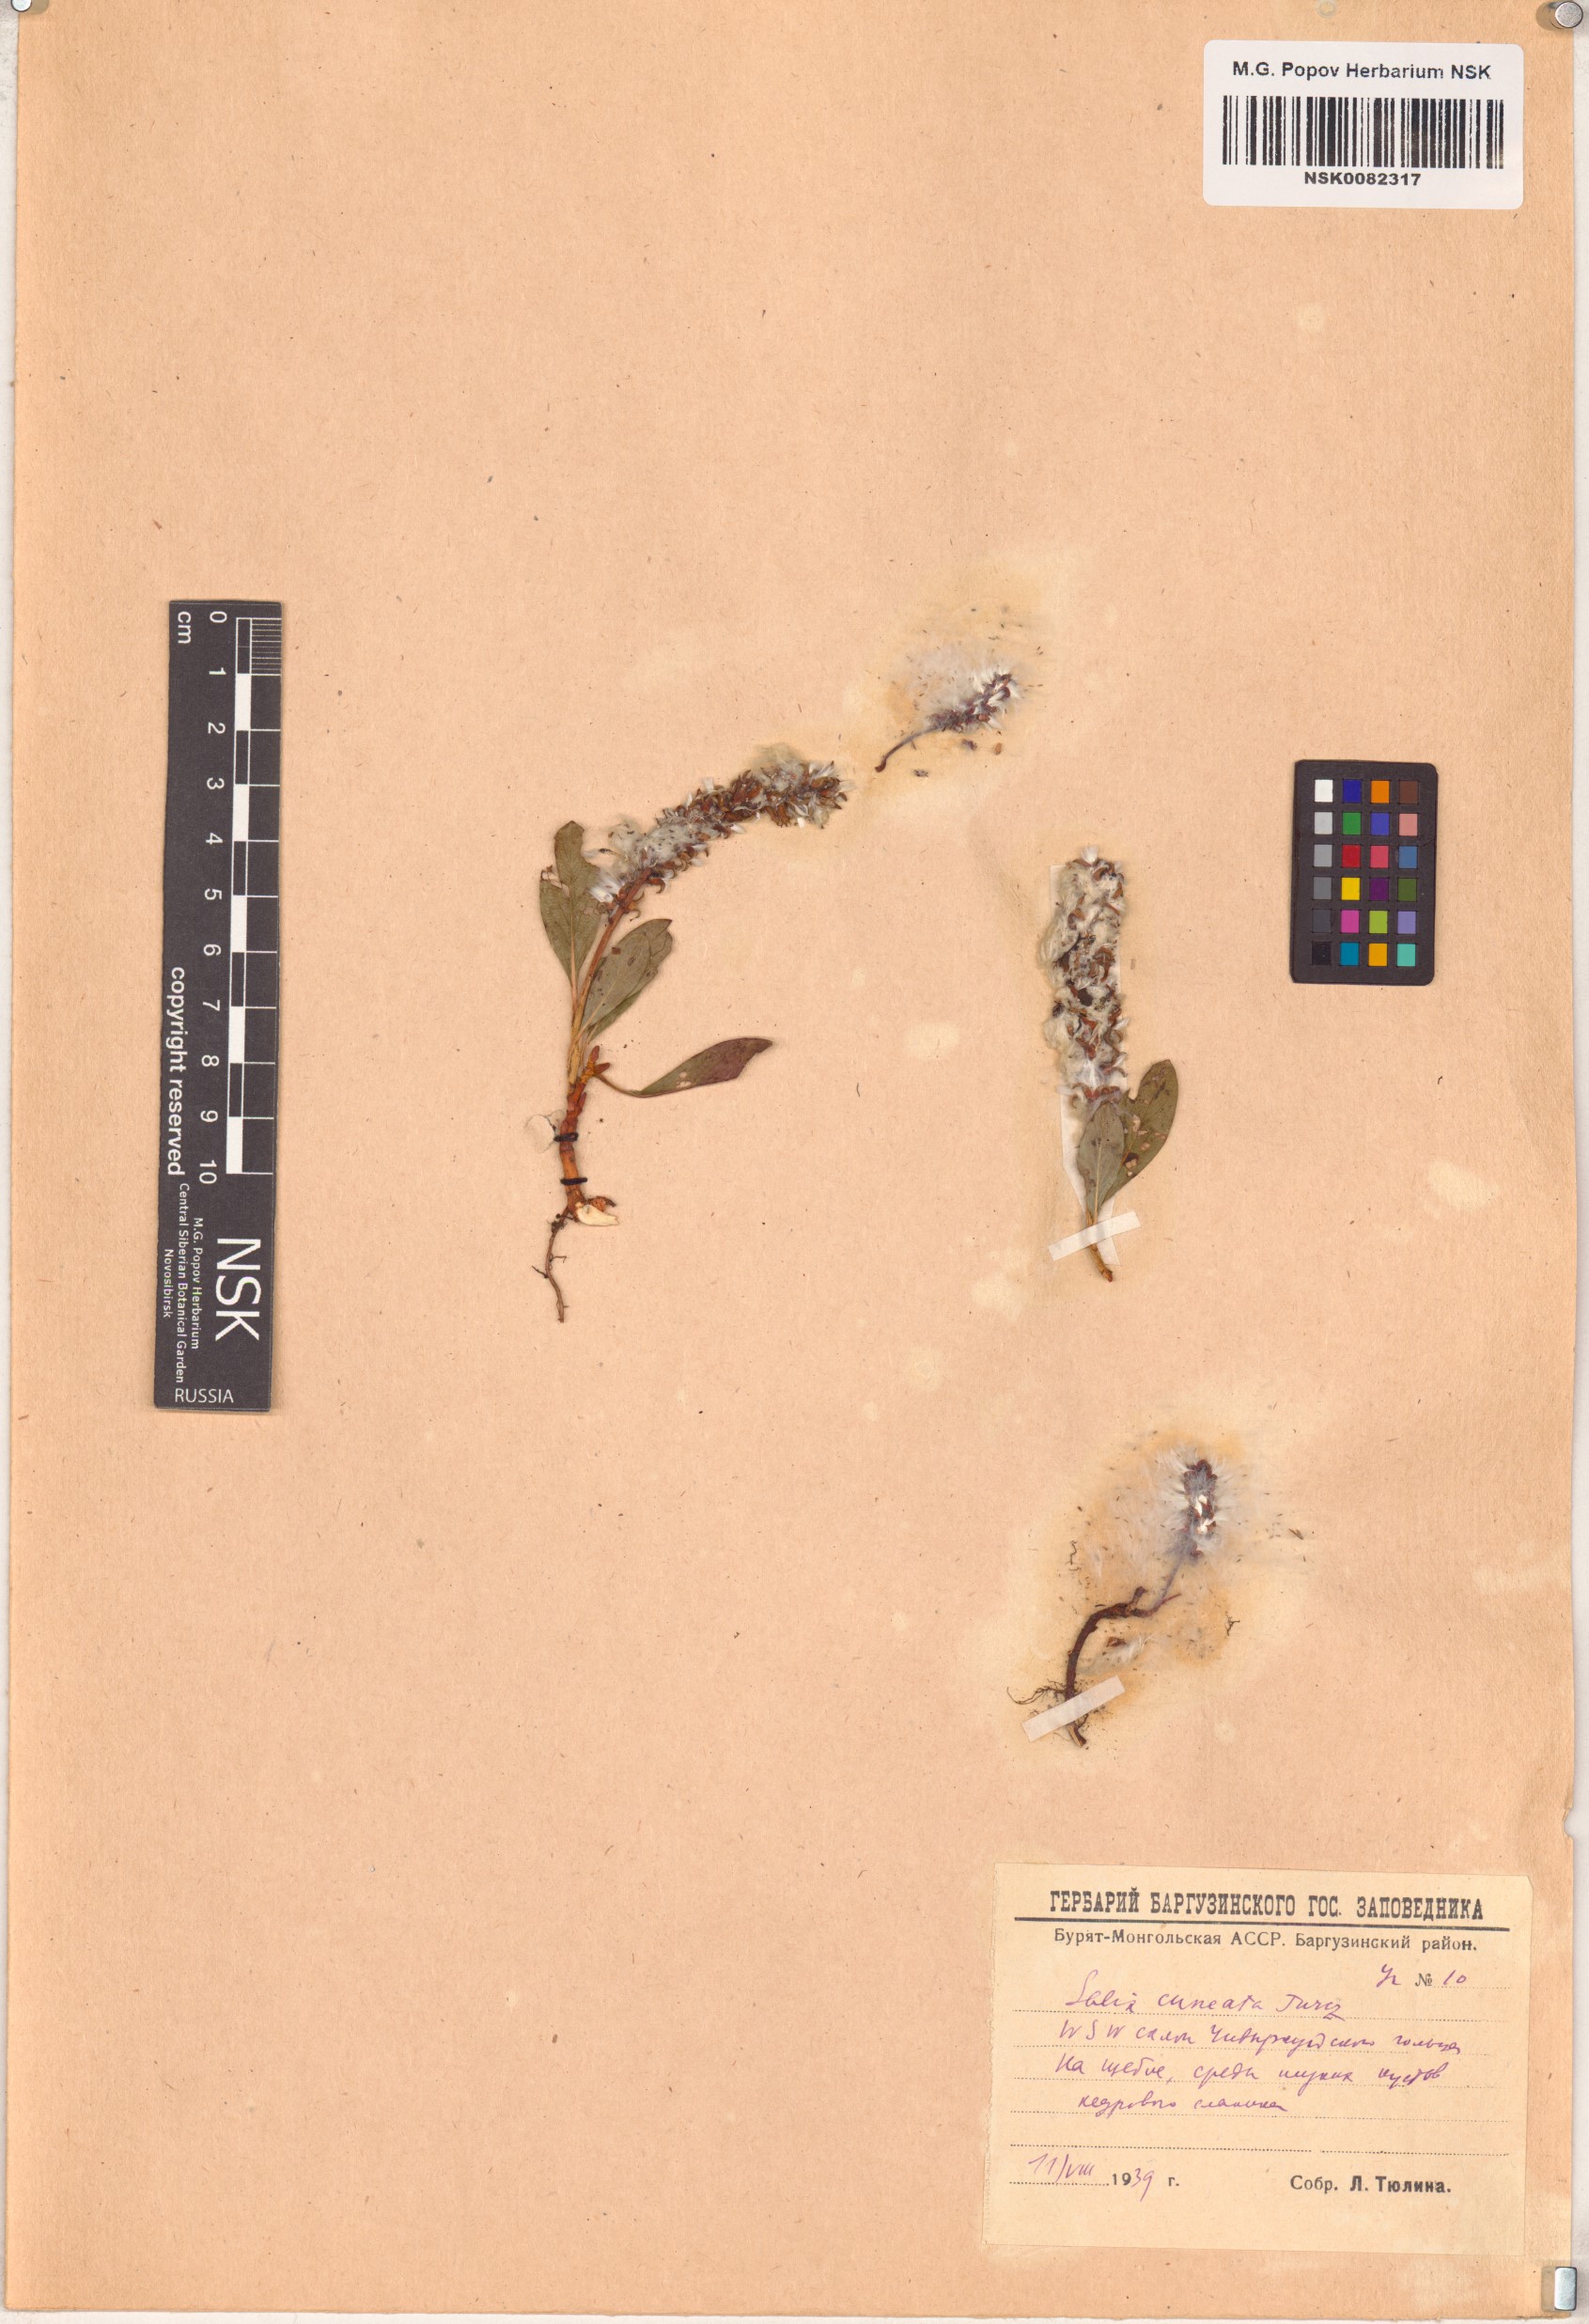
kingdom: Plantae
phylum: Tracheophyta
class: Magnoliopsida
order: Malpighiales
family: Salicaceae
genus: Salix
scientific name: Salix sphenophylla
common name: Wedge-leaved willow
